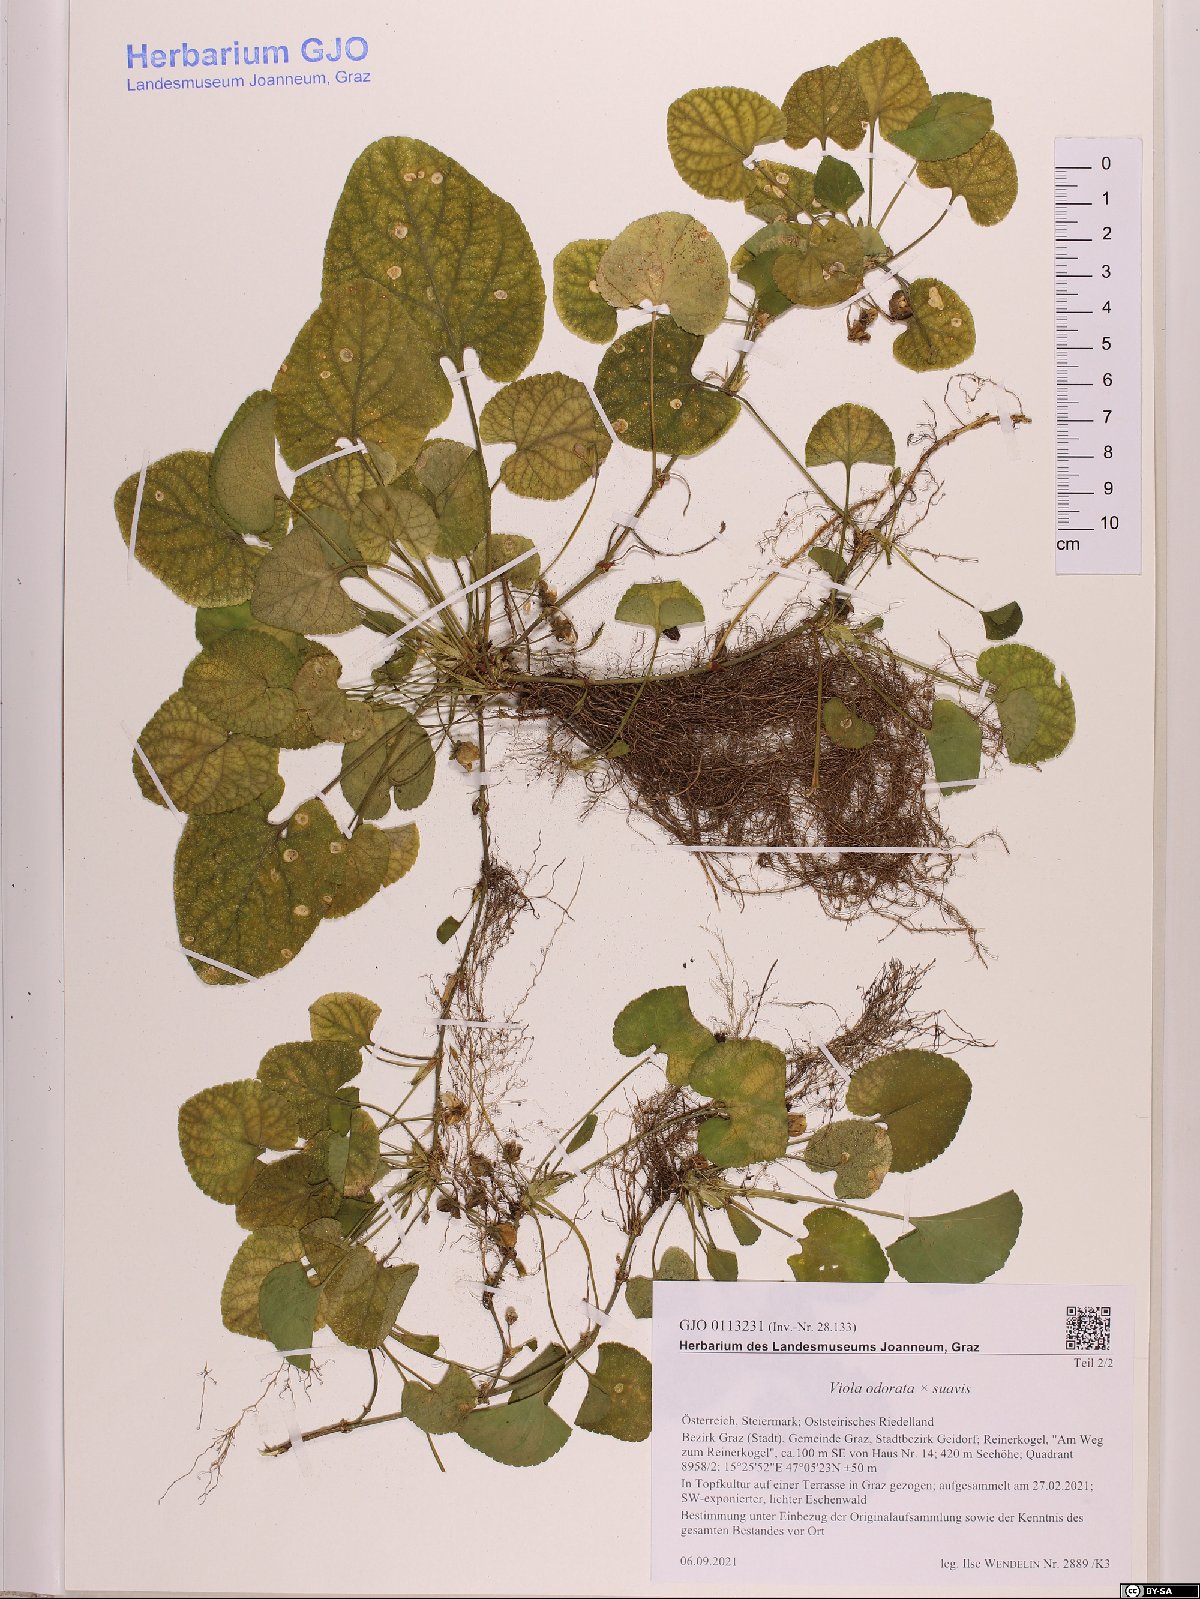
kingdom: Plantae
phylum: Tracheophyta
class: Magnoliopsida
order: Malpighiales
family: Violaceae
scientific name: Violaceae
